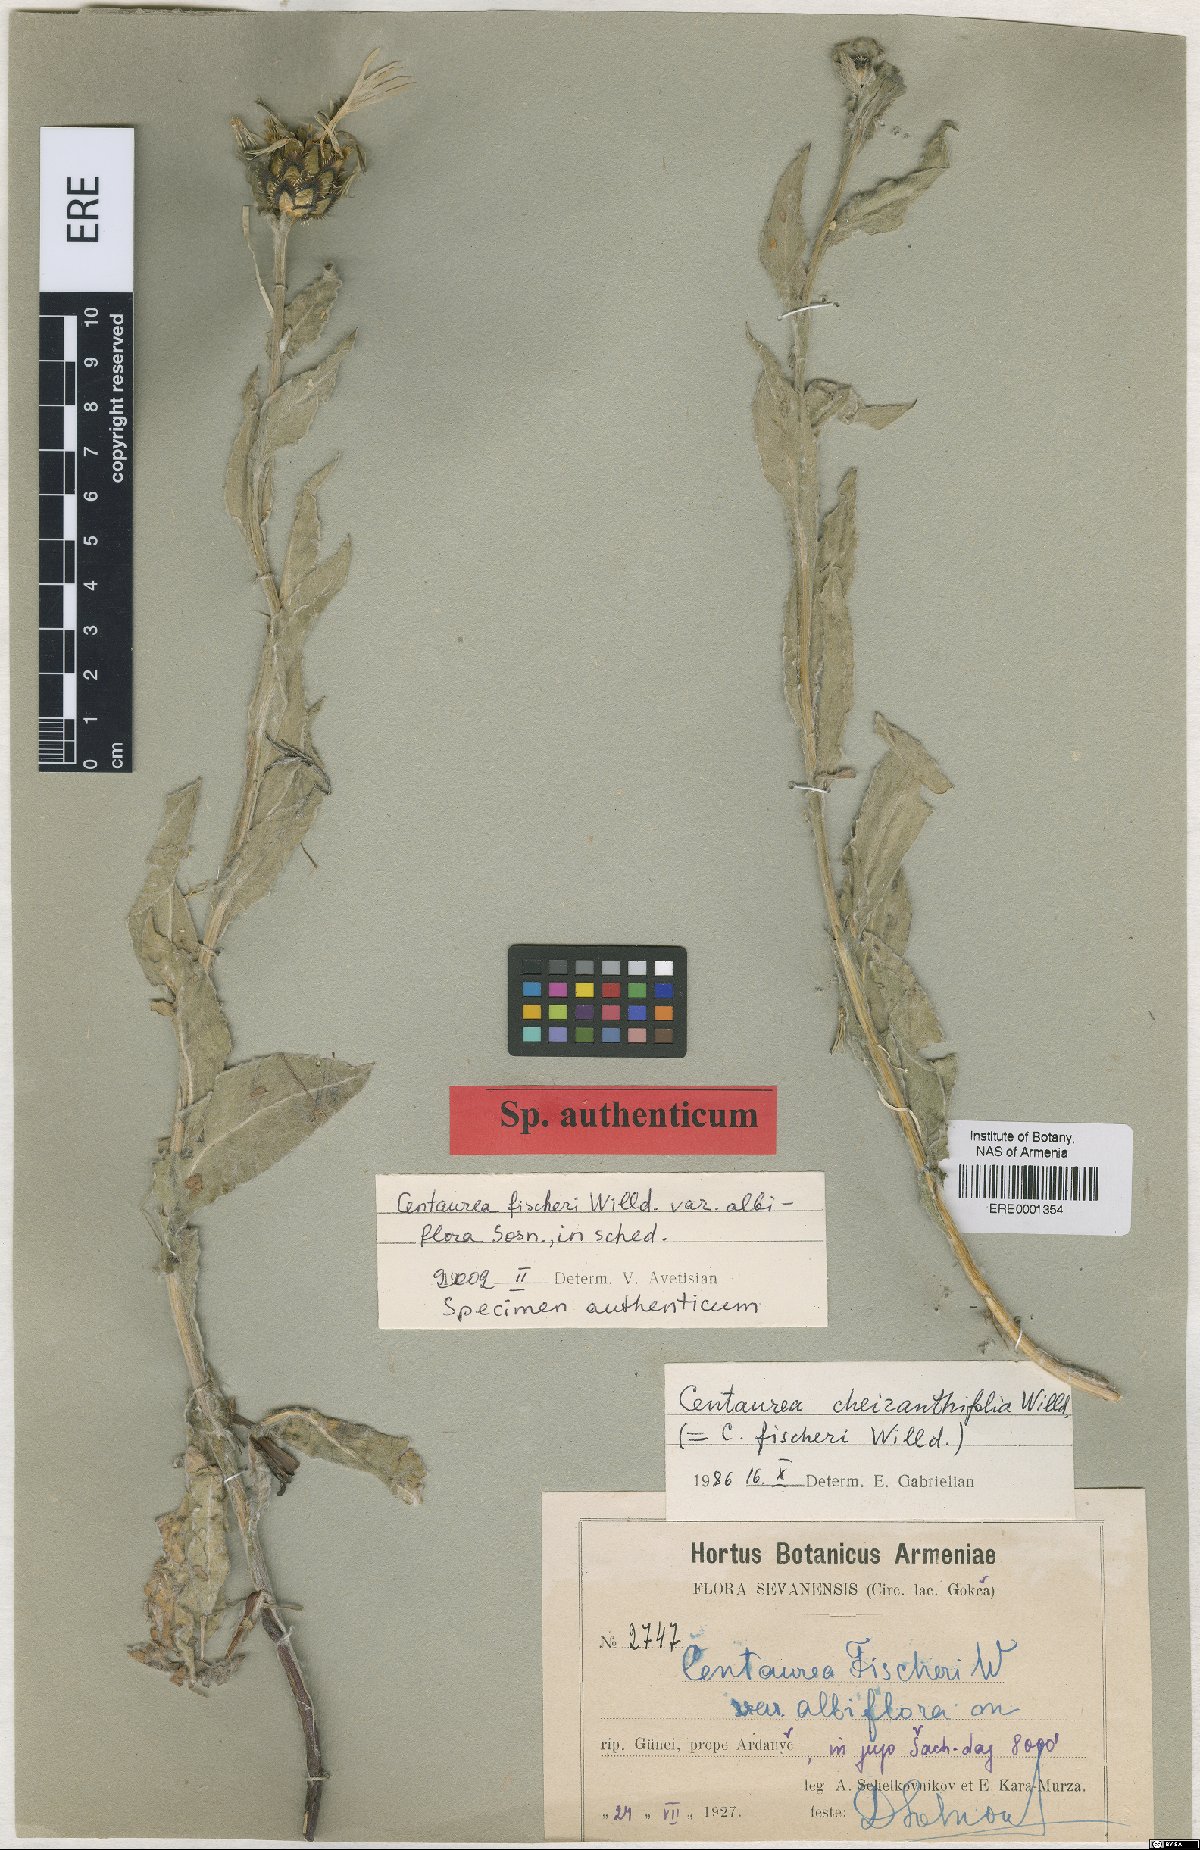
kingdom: Plantae
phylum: Tracheophyta
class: Magnoliopsida
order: Asterales
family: Asteraceae
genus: Centaurea
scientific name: Centaurea cheiranthifolia
